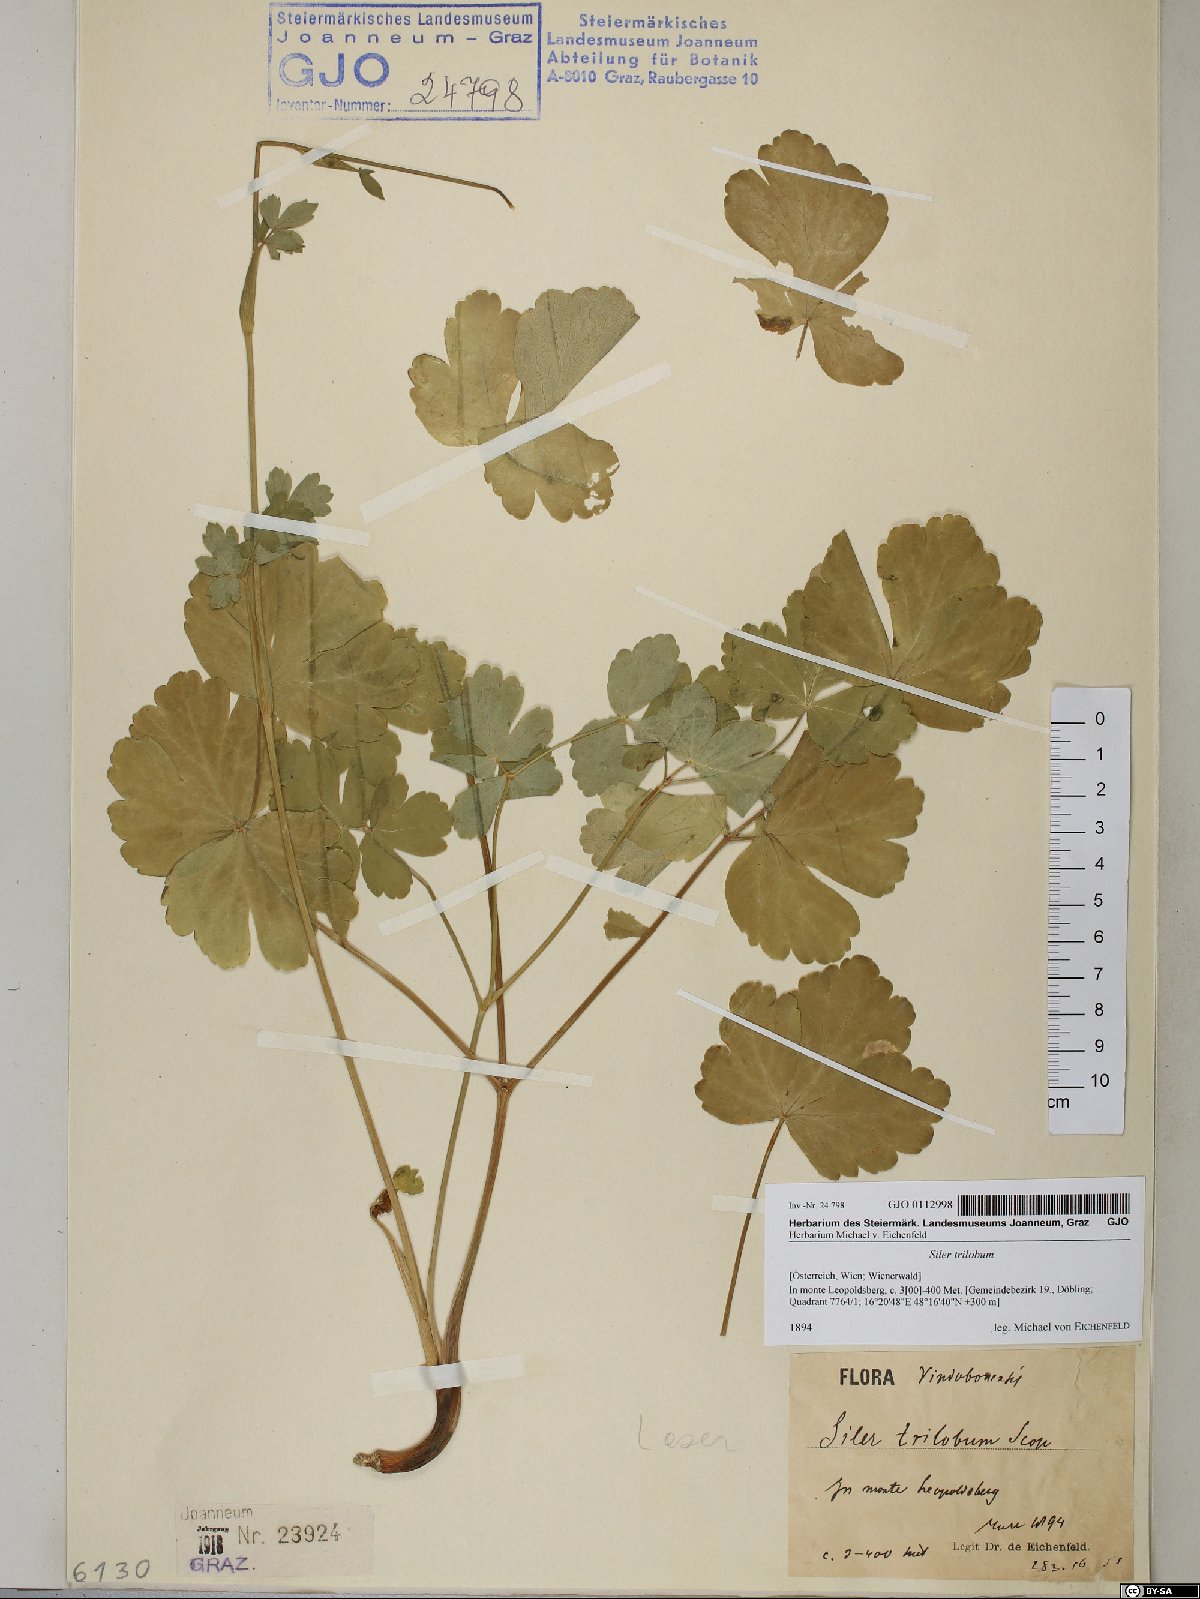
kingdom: Plantae
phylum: Tracheophyta
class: Magnoliopsida
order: Apiales
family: Apiaceae
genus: Laser
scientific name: Laser trilobum
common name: Laser
